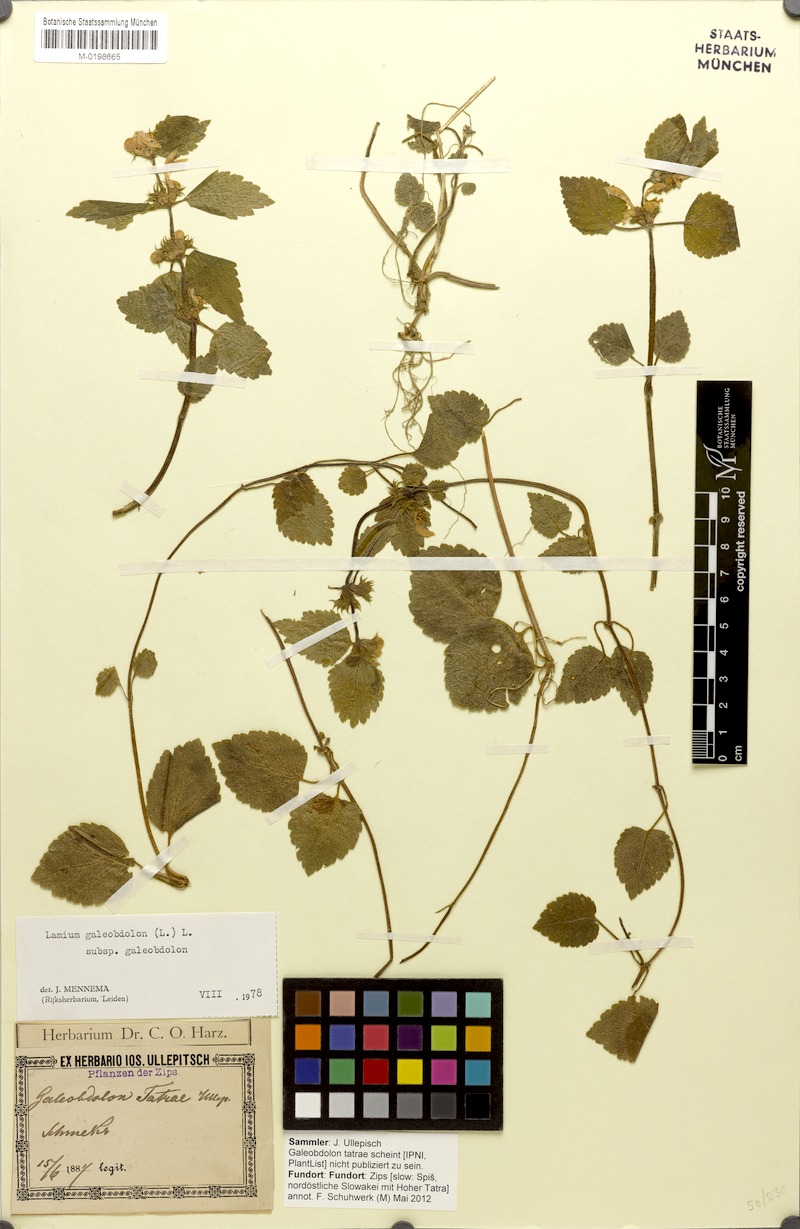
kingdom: Plantae
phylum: Tracheophyta
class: Magnoliopsida
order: Lamiales
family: Lamiaceae
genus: Lamium
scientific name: Lamium galeobdolon
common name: Yellow archangel
